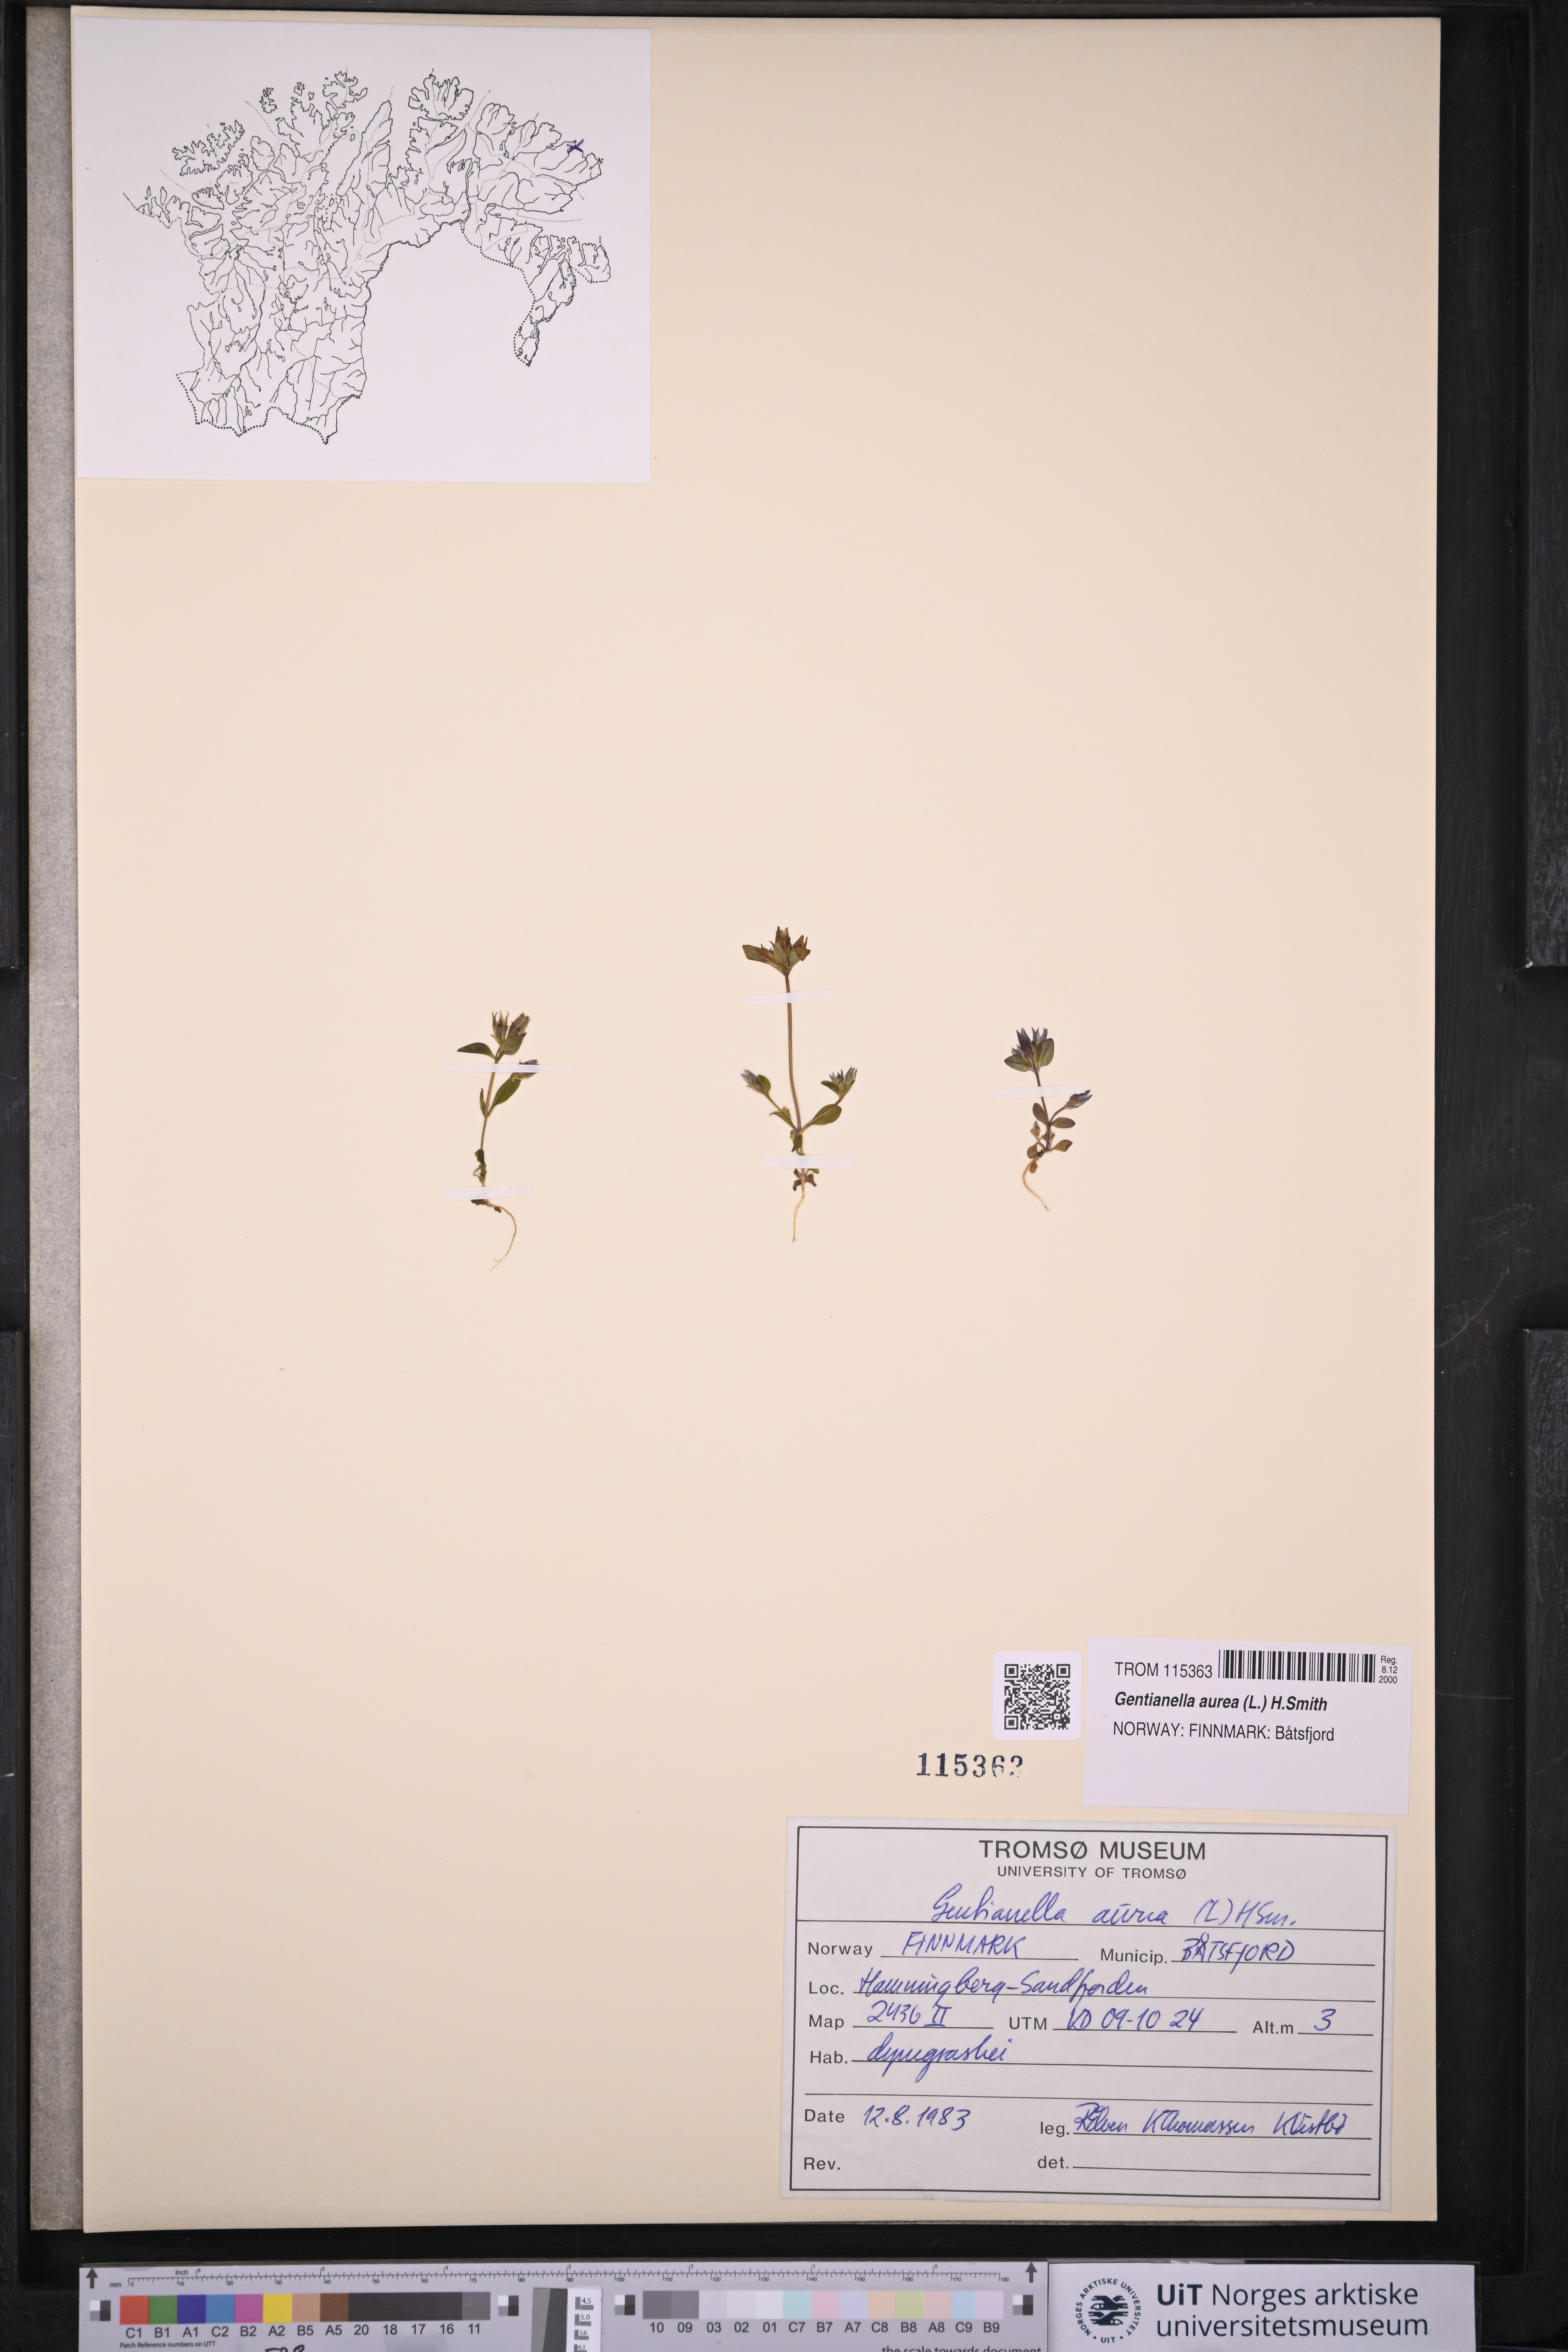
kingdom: Plantae
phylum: Tracheophyta
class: Magnoliopsida
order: Gentianales
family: Gentianaceae
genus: Gentianella
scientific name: Gentianella aurea
